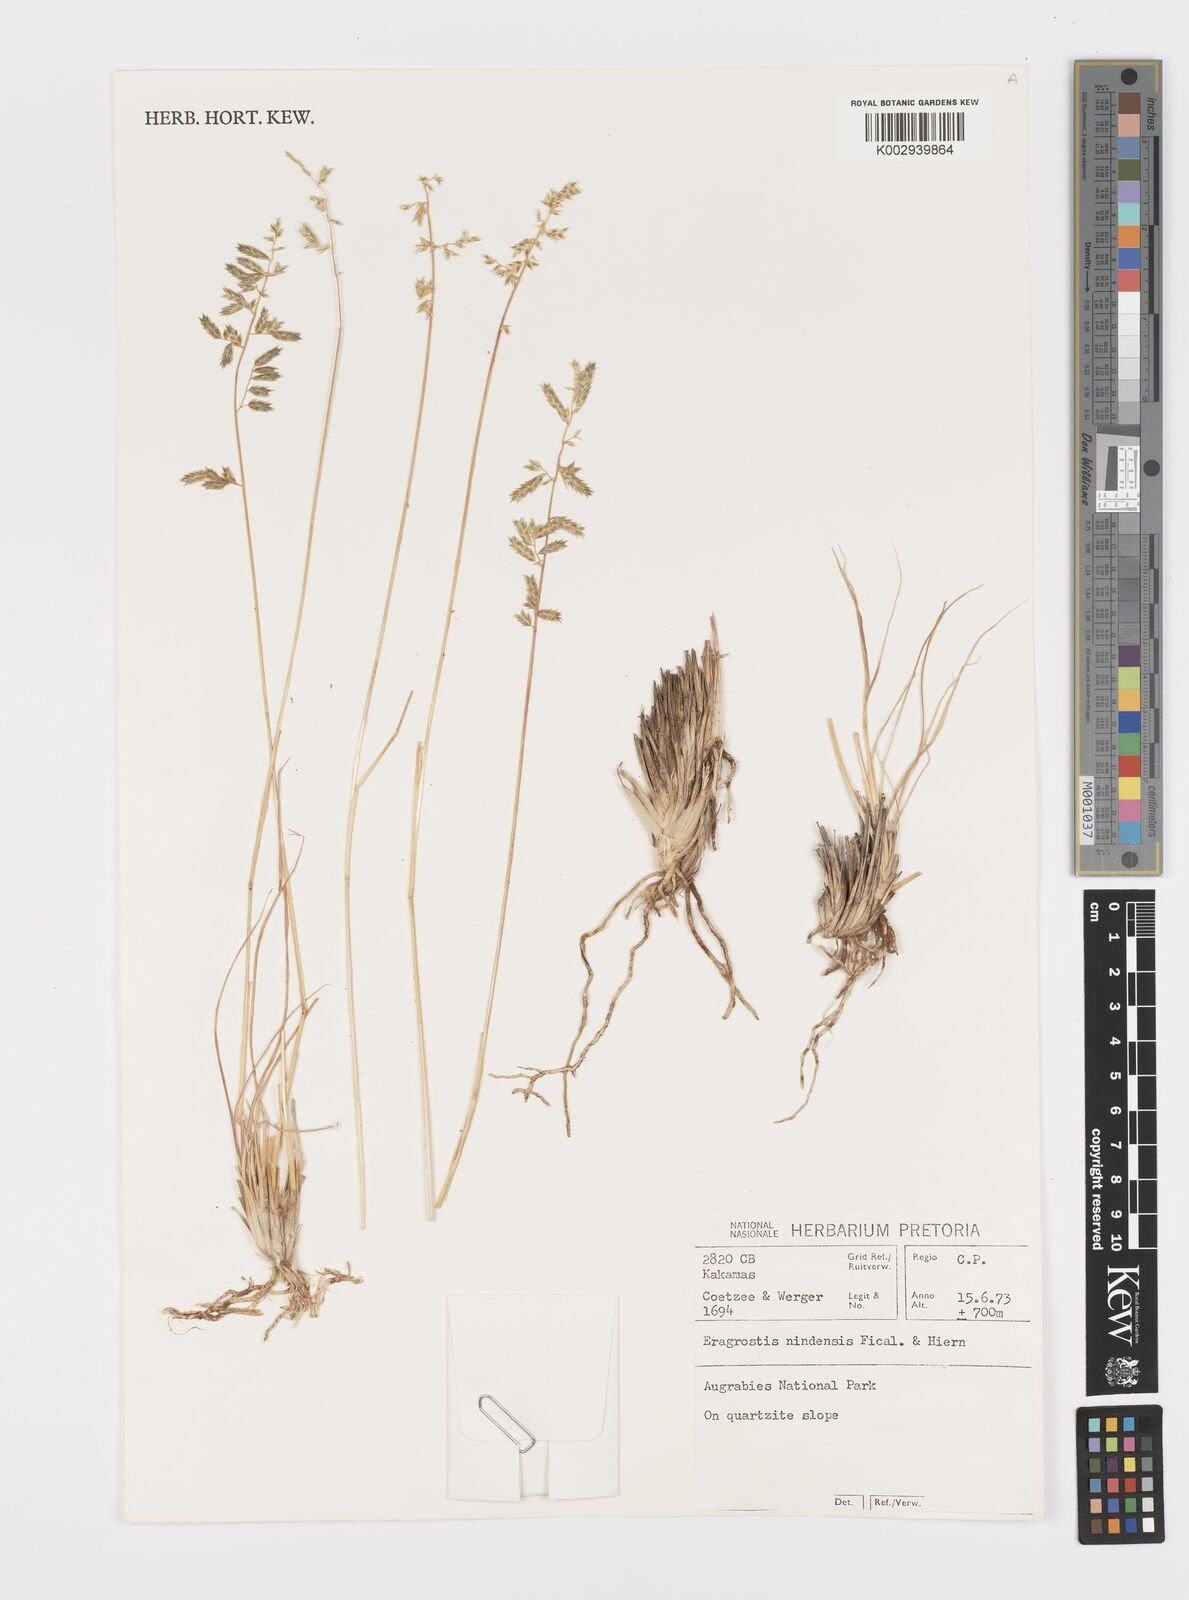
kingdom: Plantae
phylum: Tracheophyta
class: Liliopsida
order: Poales
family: Poaceae
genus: Eragrostis
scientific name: Eragrostis nindensis
